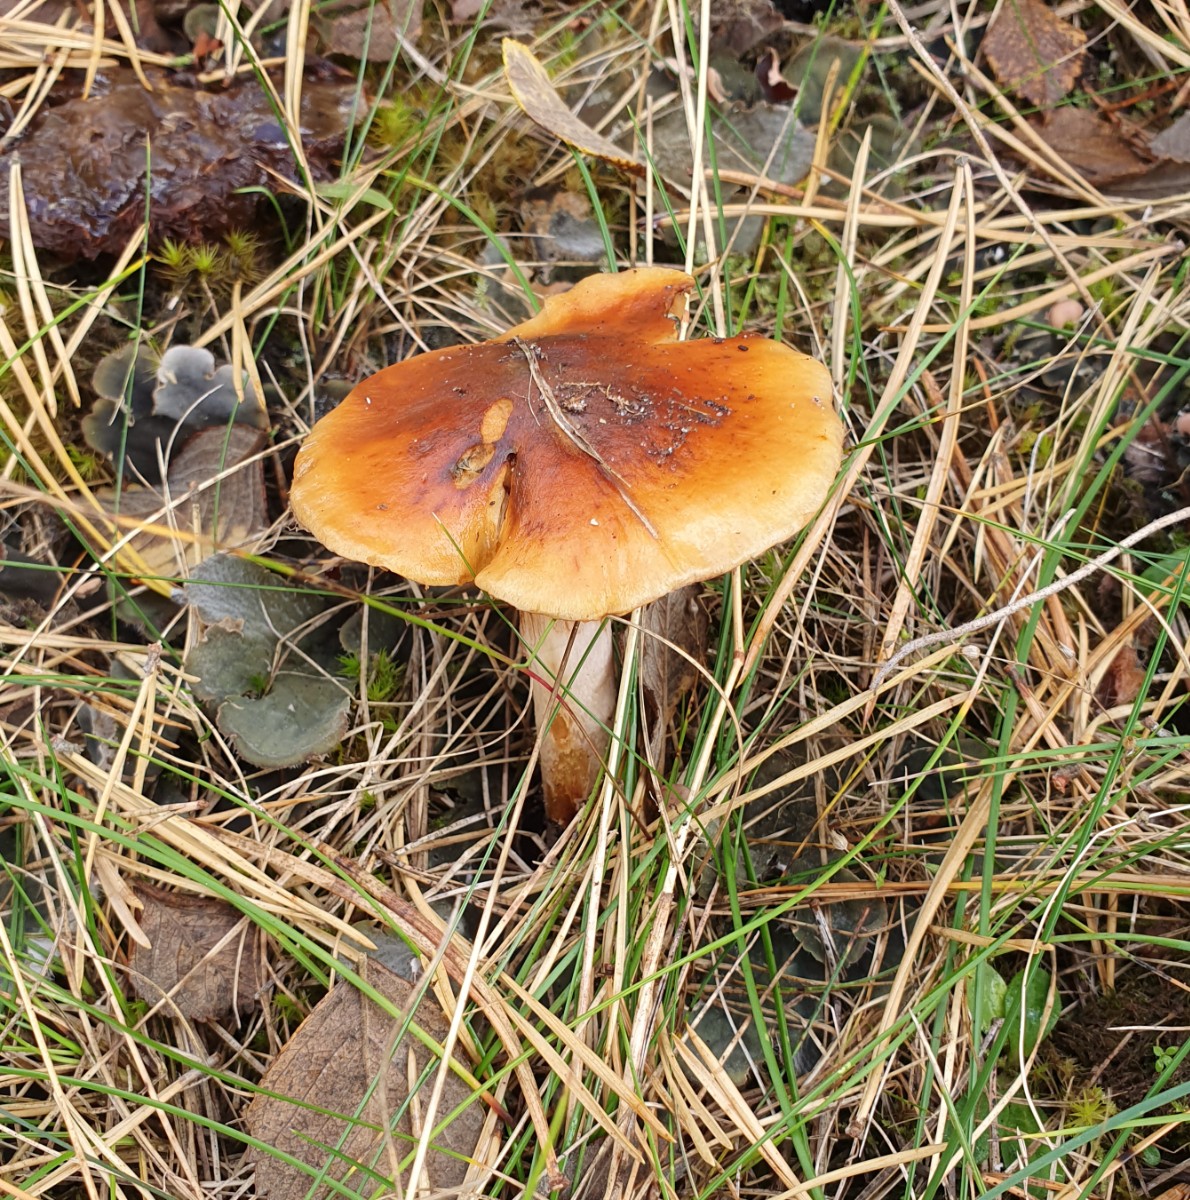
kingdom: Fungi
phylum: Basidiomycota
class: Agaricomycetes
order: Agaricales
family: Cortinariaceae
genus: Cortinarius
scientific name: Cortinarius mucosus
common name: kastaniebrun slørhat
